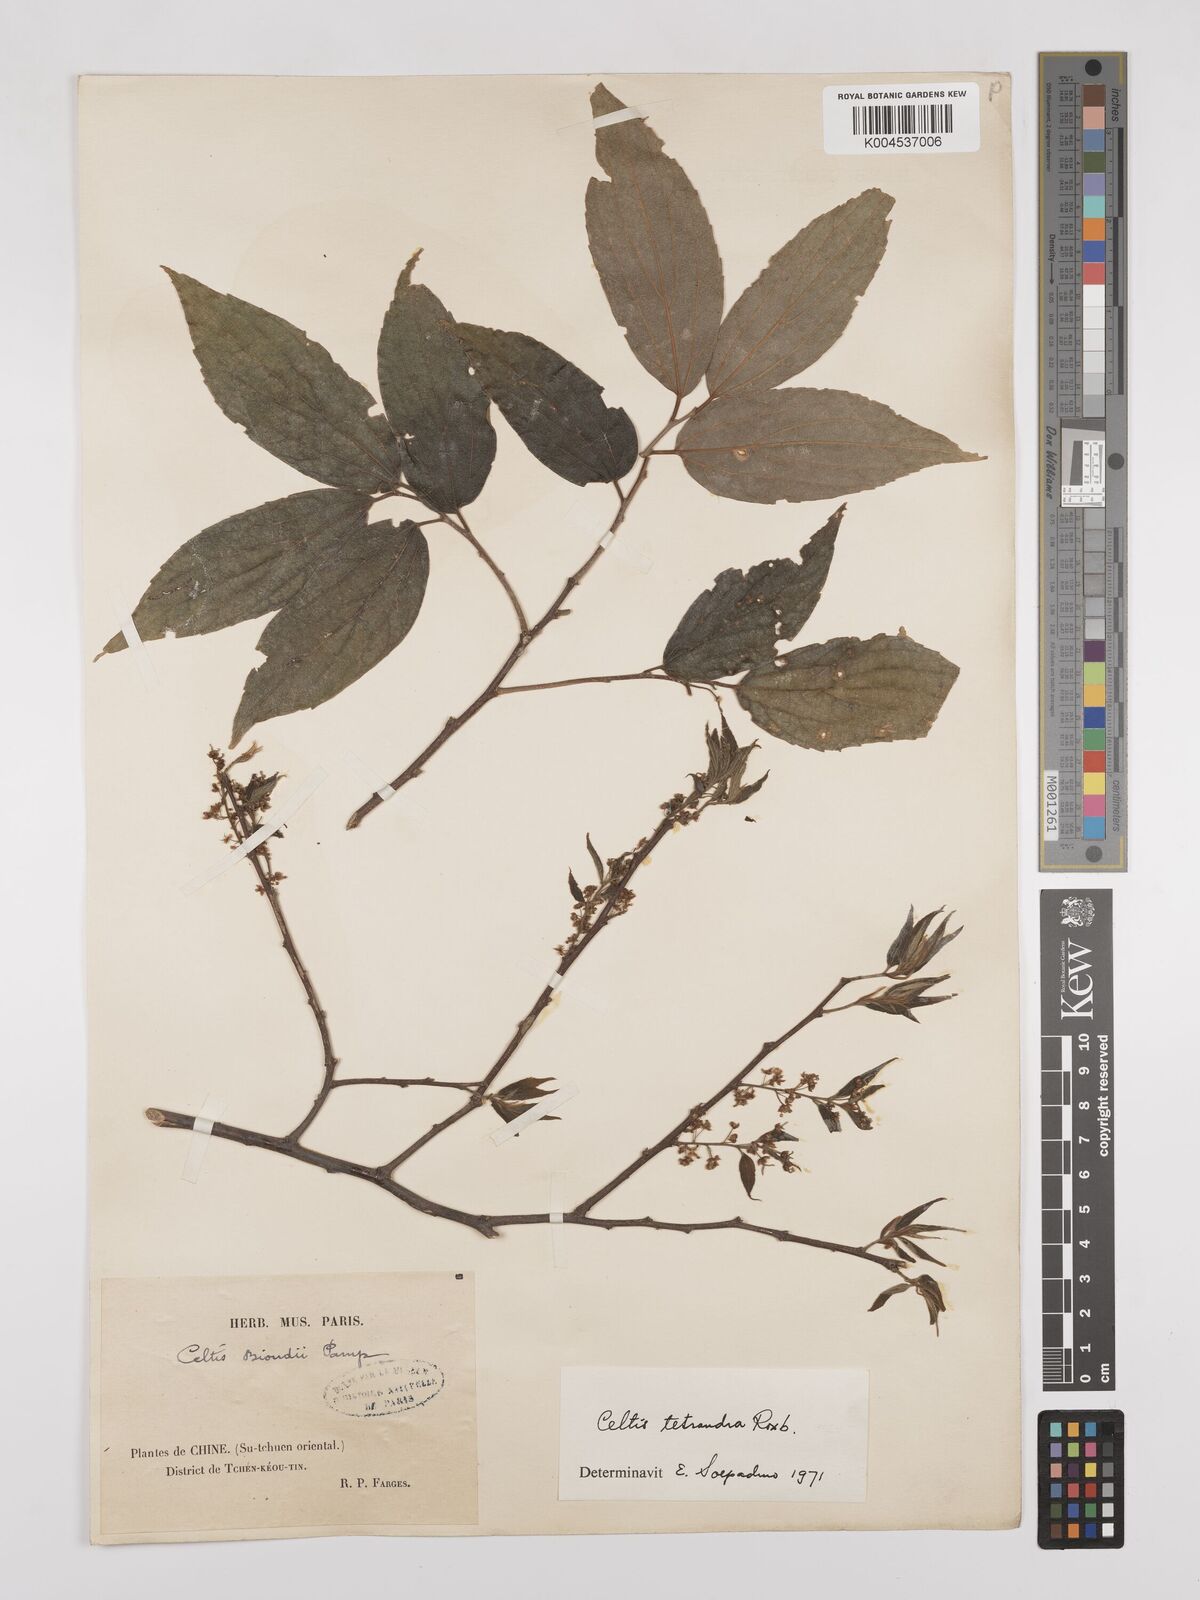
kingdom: Plantae
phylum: Tracheophyta
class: Magnoliopsida
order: Rosales
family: Cannabaceae
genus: Celtis
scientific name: Celtis tetrandra
